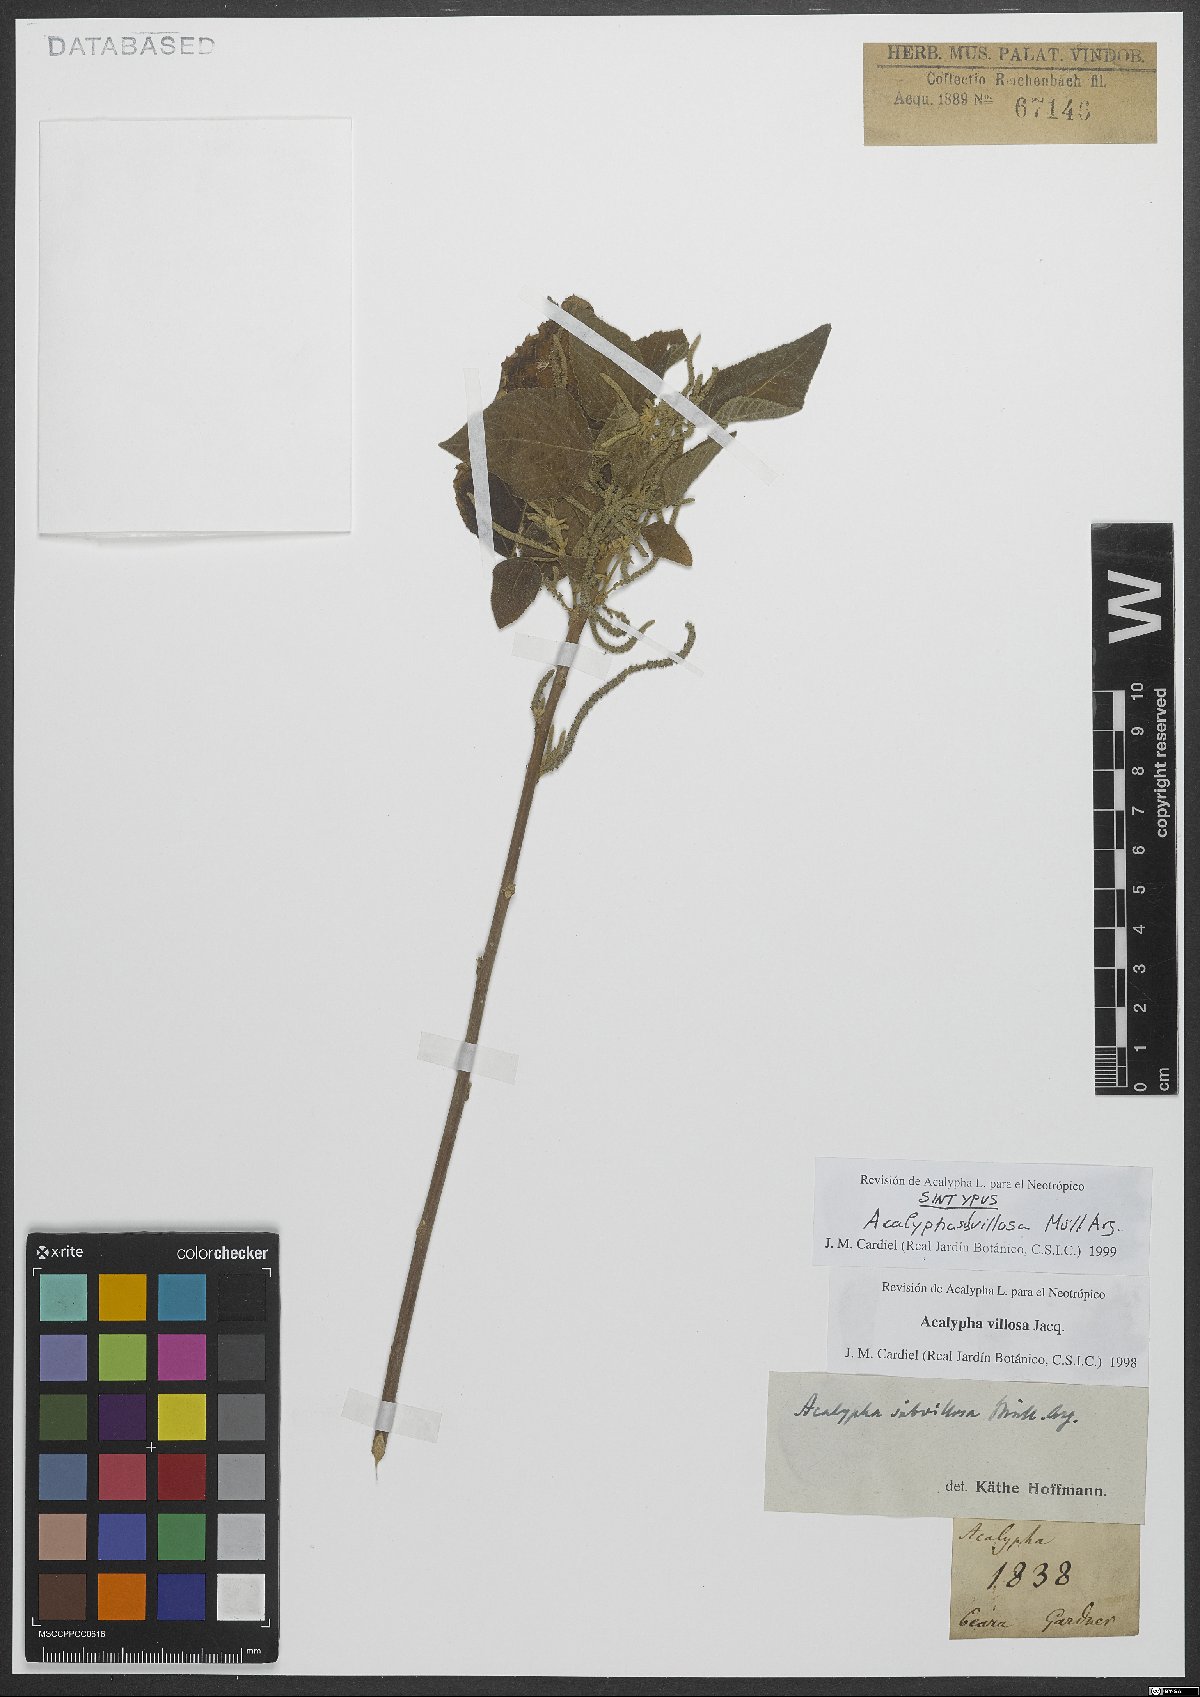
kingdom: Plantae
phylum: Tracheophyta
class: Magnoliopsida
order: Malpighiales
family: Euphorbiaceae
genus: Acalypha
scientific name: Acalypha villosa
